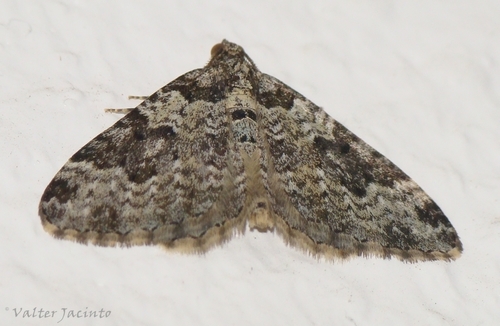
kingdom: Animalia
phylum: Arthropoda
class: Insecta
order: Lepidoptera
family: Geometridae
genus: Xanthorhoe
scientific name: Xanthorhoe fluctuata
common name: Garden carpet
